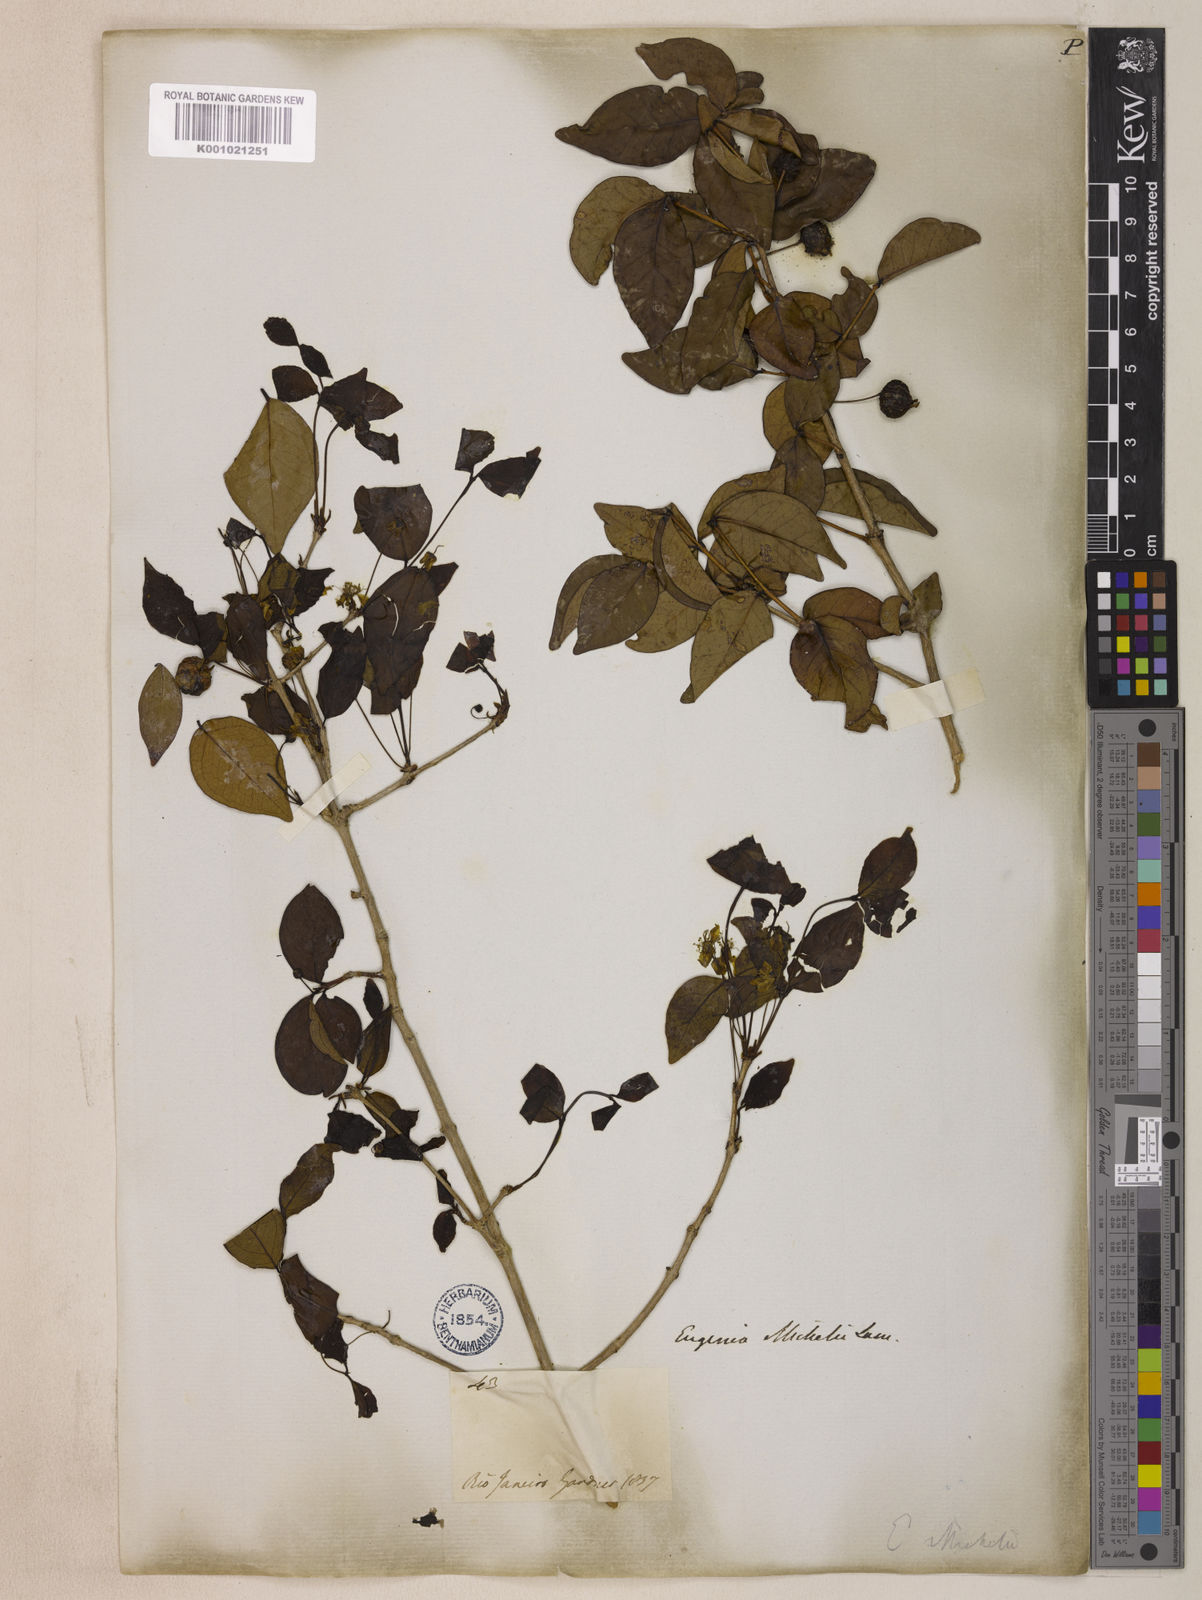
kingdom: Plantae
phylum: Tracheophyta
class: Magnoliopsida
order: Myrtales
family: Myrtaceae
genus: Eugenia
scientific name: Eugenia uniflora
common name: Surinam cherry
